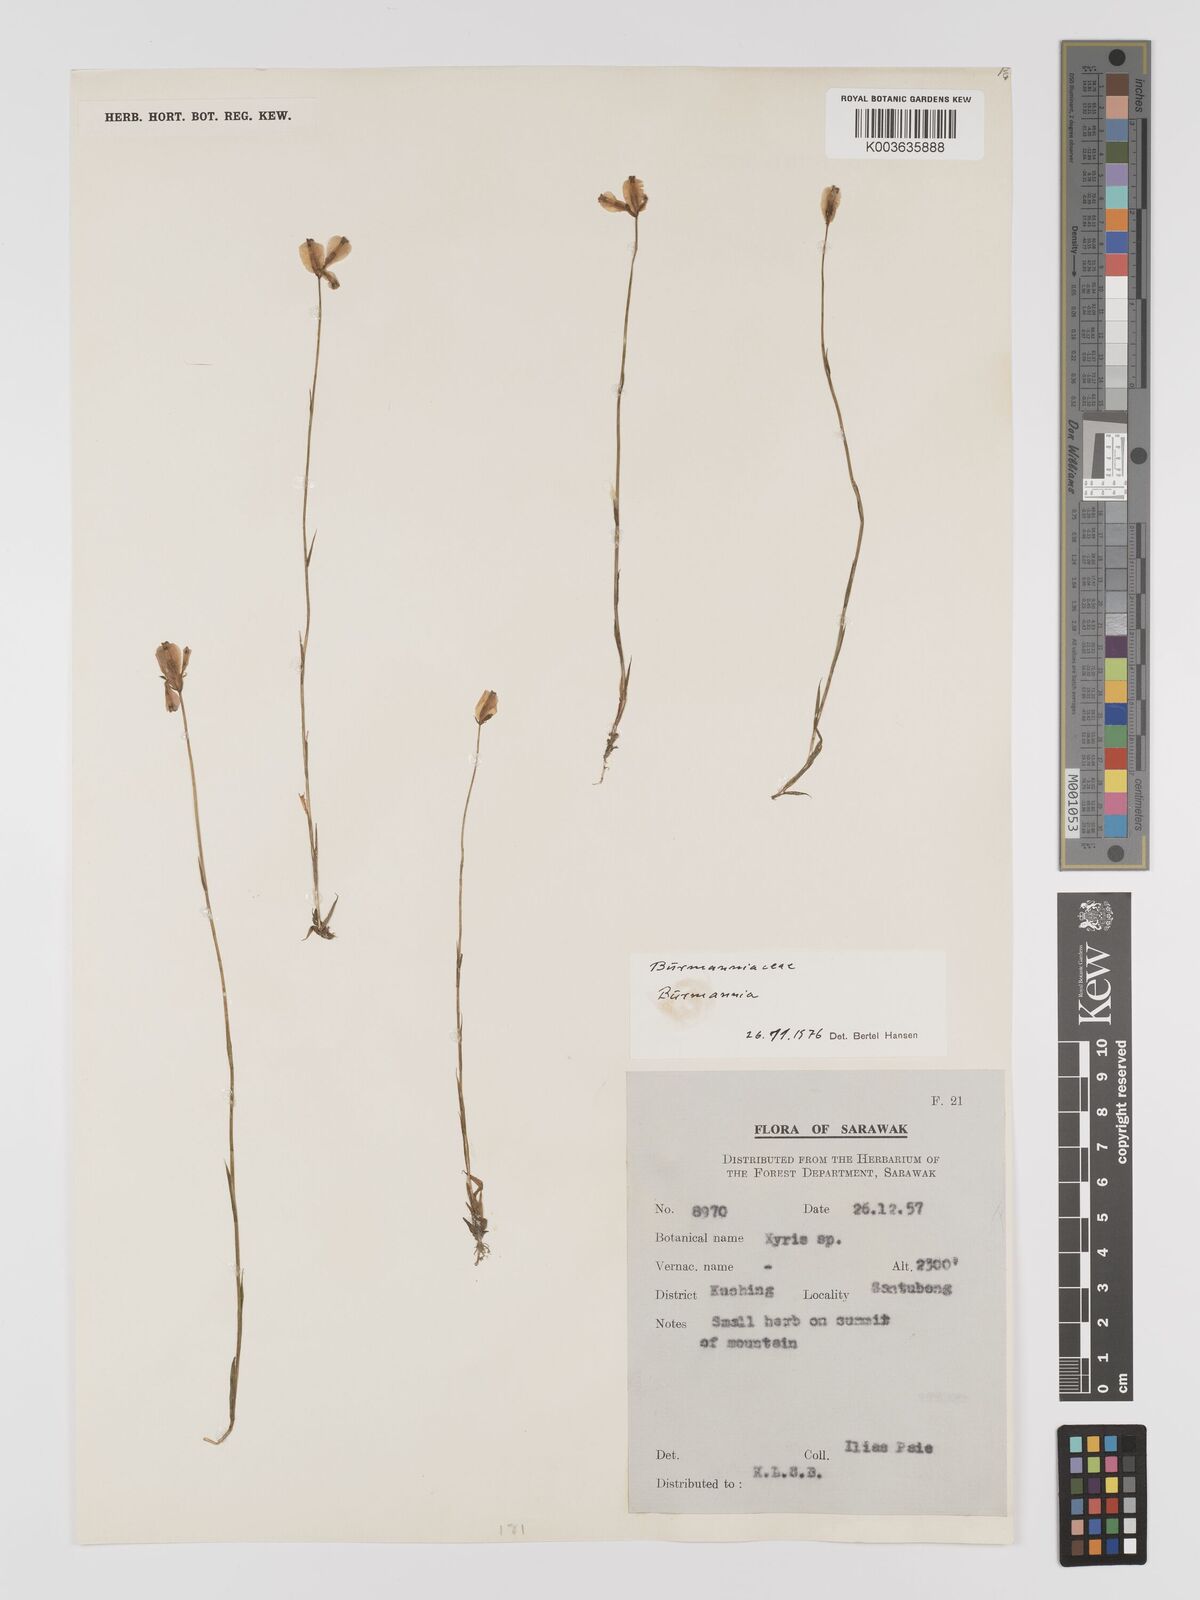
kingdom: Plantae
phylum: Tracheophyta
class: Liliopsida
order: Dioscoreales
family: Burmanniaceae
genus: Burmannia
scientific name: Burmannia coelestis
